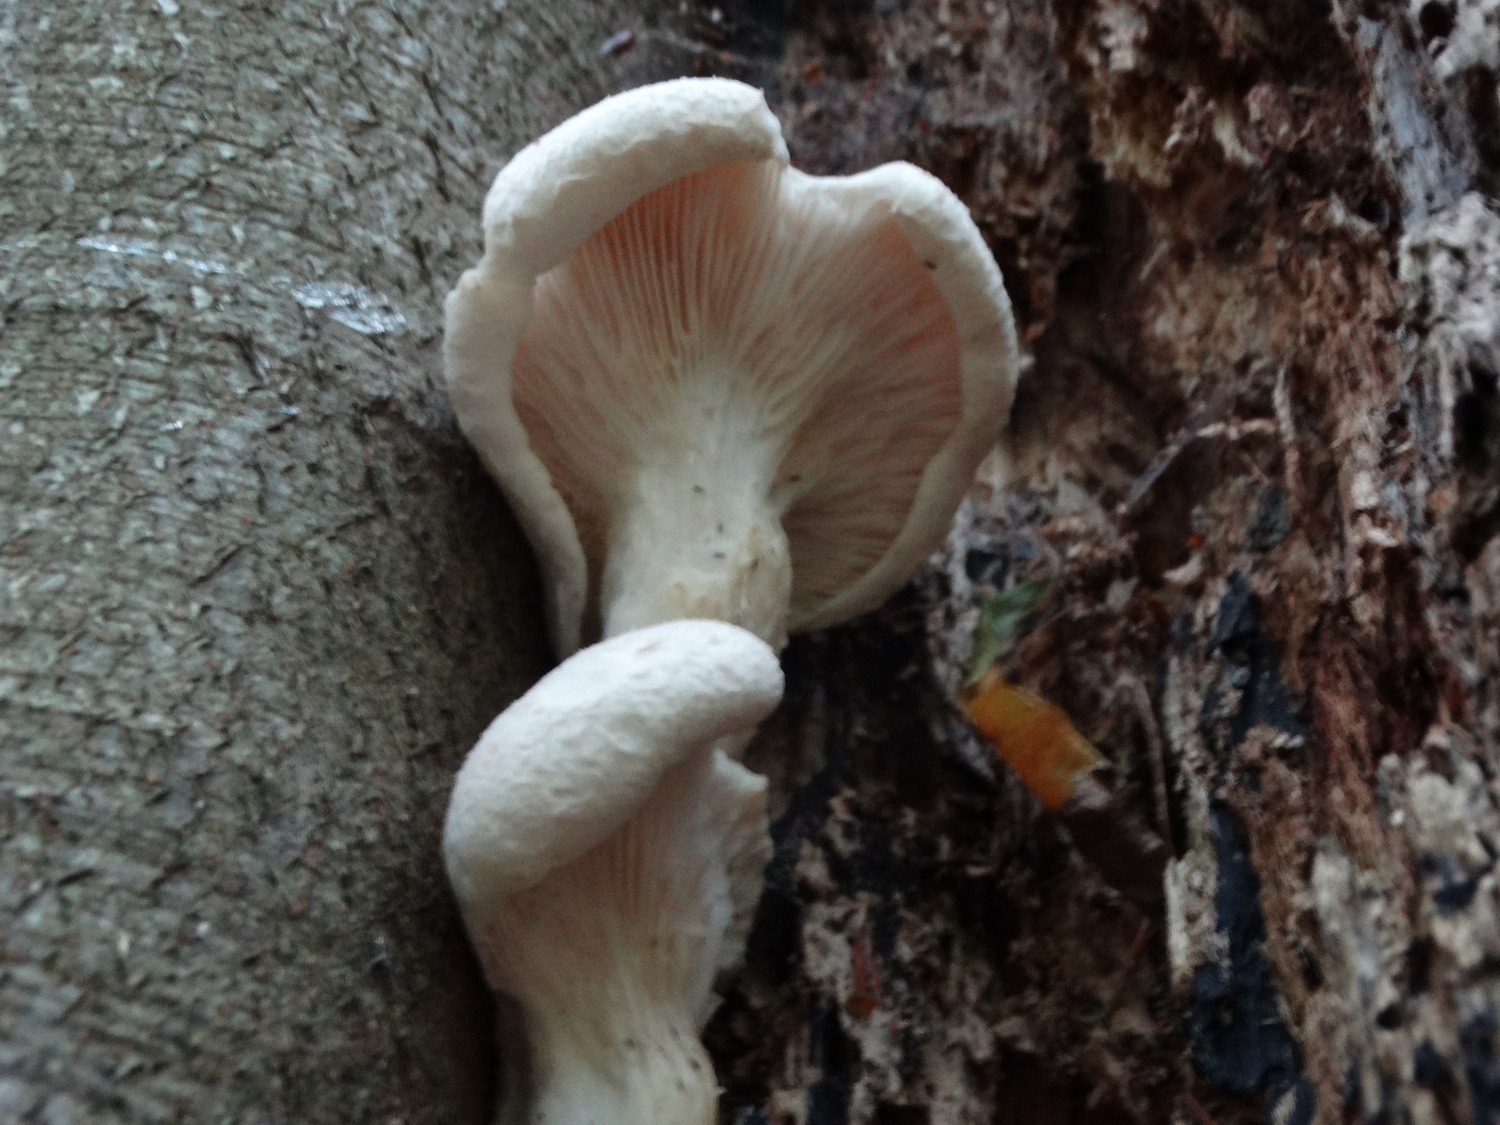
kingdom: Fungi
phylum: Basidiomycota
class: Agaricomycetes
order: Agaricales
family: Pleurotaceae
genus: Pleurotus
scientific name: Pleurotus dryinus
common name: korkagtig østershat
